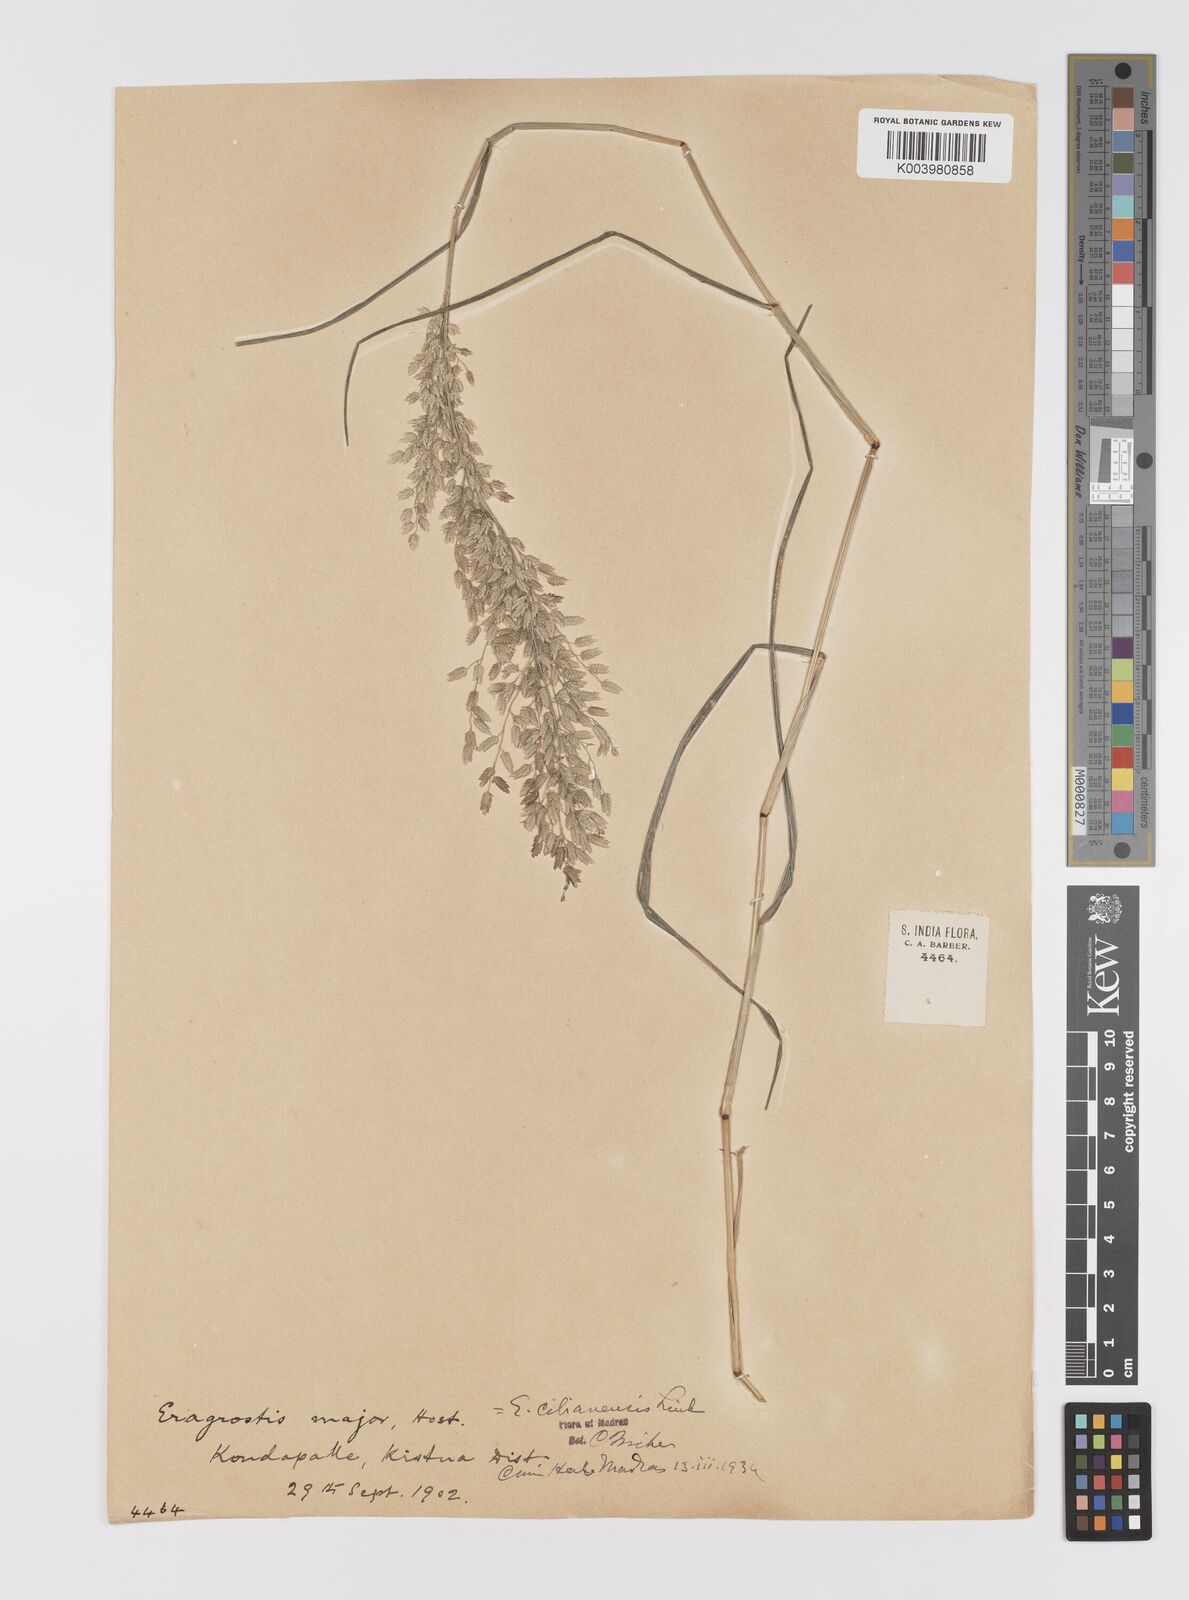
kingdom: Plantae
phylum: Tracheophyta
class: Liliopsida
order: Poales
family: Poaceae
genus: Eragrostis
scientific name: Eragrostis cilianensis
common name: Stinkgrass
